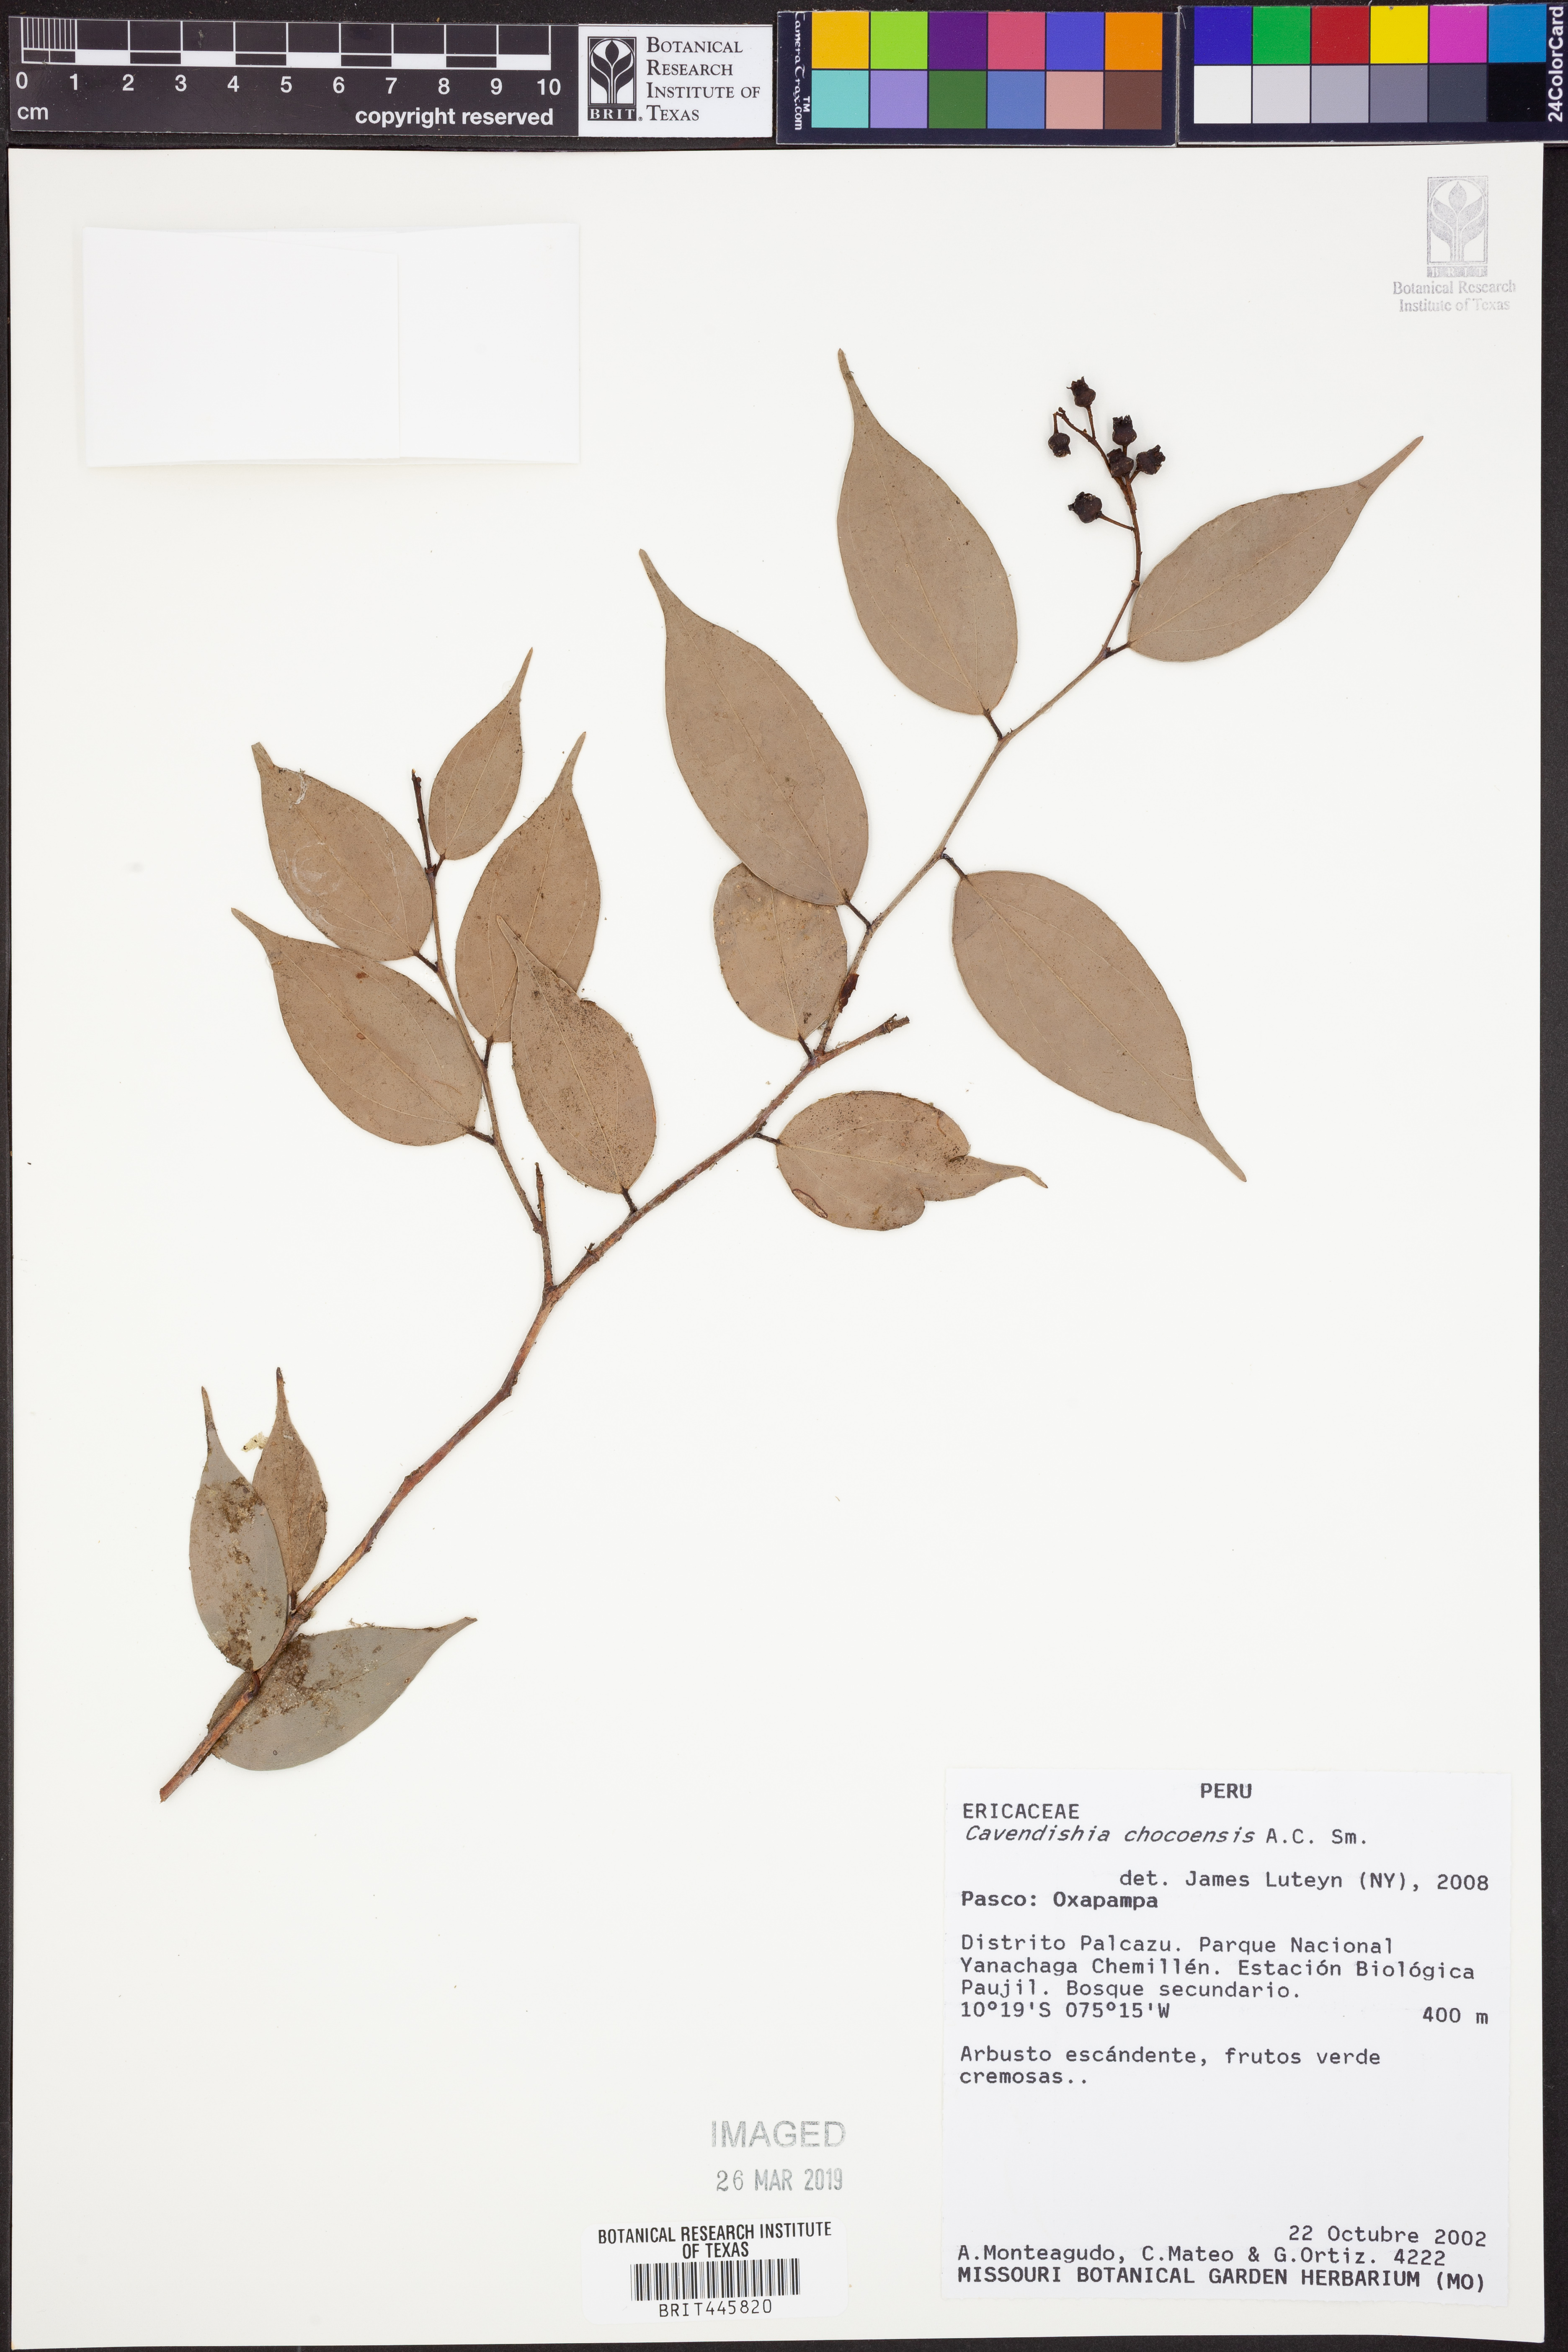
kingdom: Plantae
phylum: Tracheophyta
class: Magnoliopsida
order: Ericales
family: Ericaceae
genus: Cavendishia
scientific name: Cavendishia chocoensis
